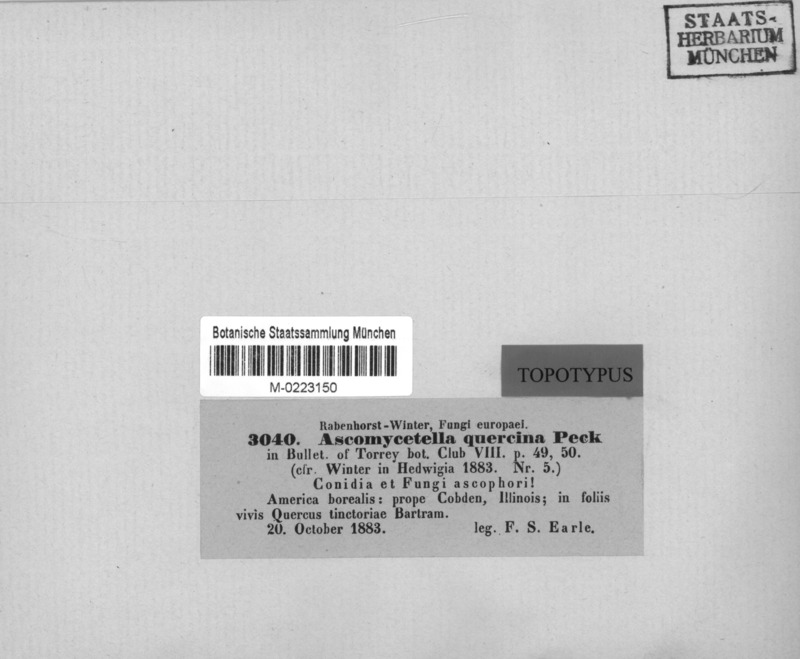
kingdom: Fungi
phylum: Ascomycota
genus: Articularia
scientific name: Articularia quercina
